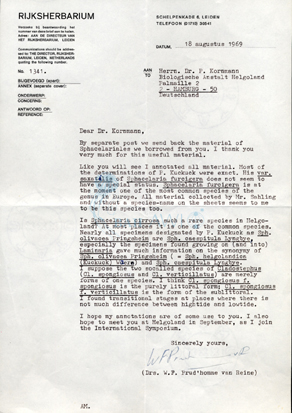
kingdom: Chromista
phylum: Ochrophyta
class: Phaeophyceae
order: Sphacelariales
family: Sphacelariaceae
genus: Sphacelaria
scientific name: Sphacelaria rigidula
